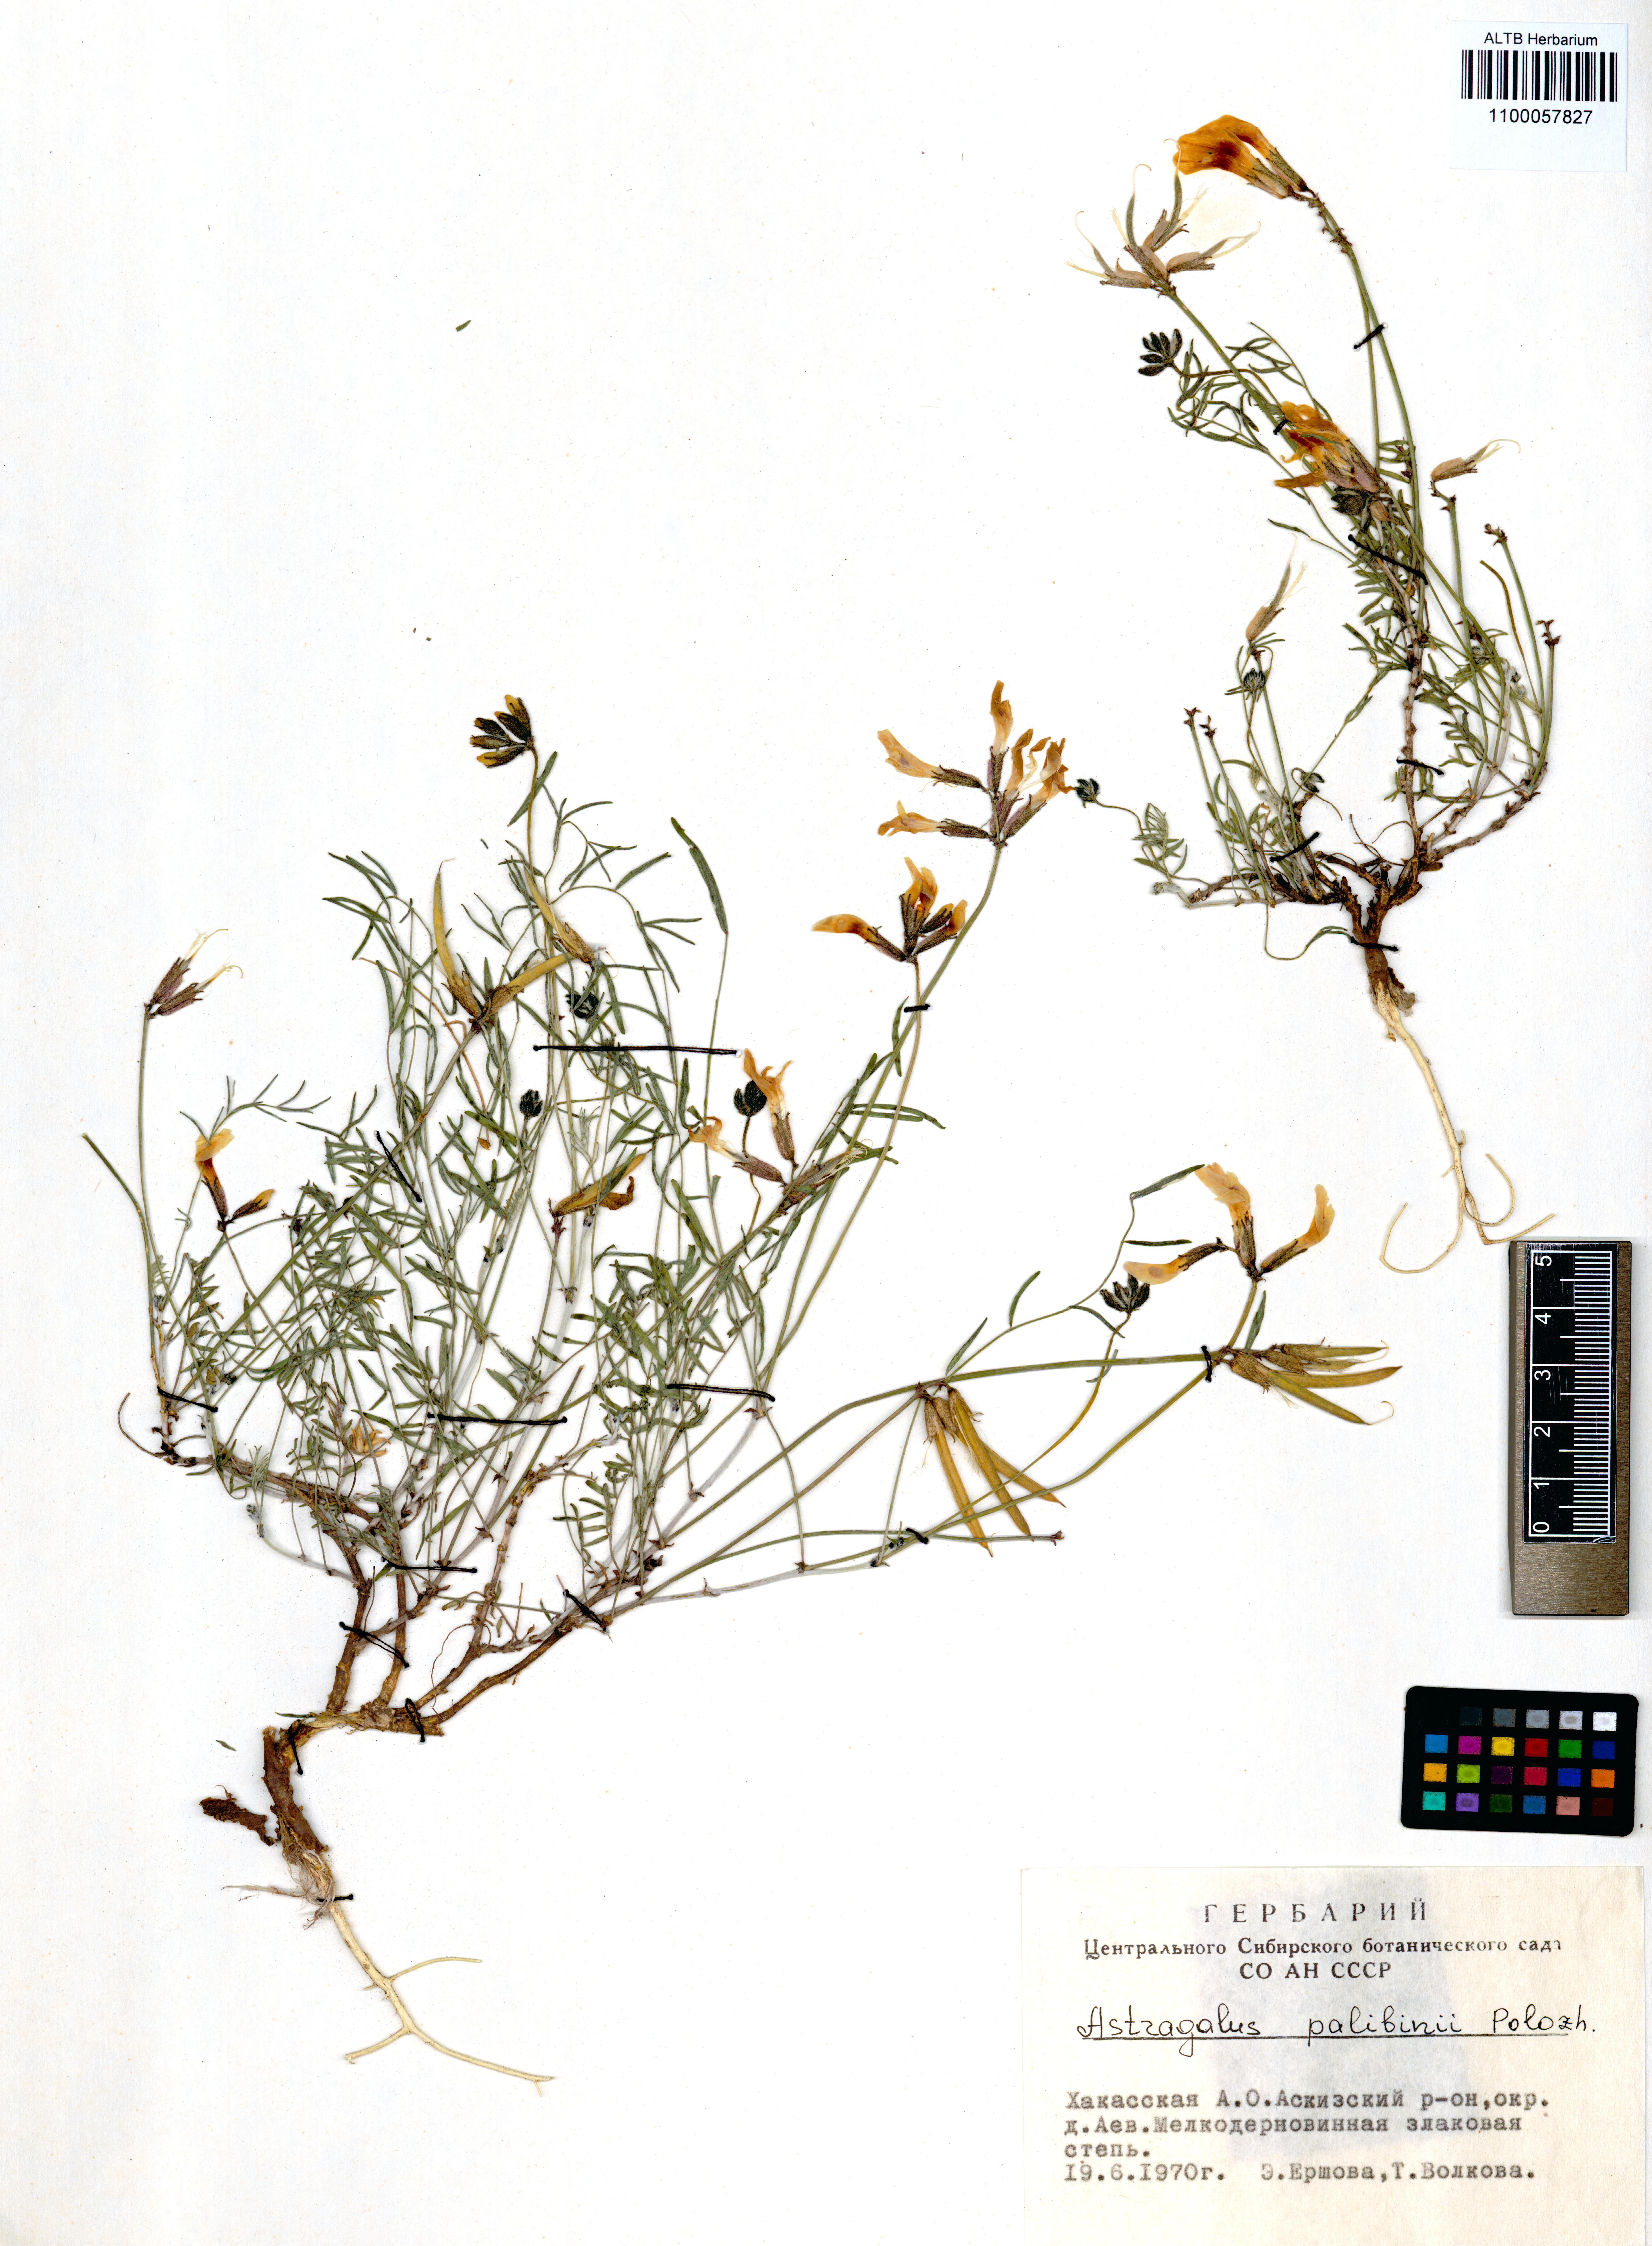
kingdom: Plantae
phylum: Tracheophyta
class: Magnoliopsida
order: Fabales
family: Fabaceae
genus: Astragalus
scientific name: Astragalus palibinii
